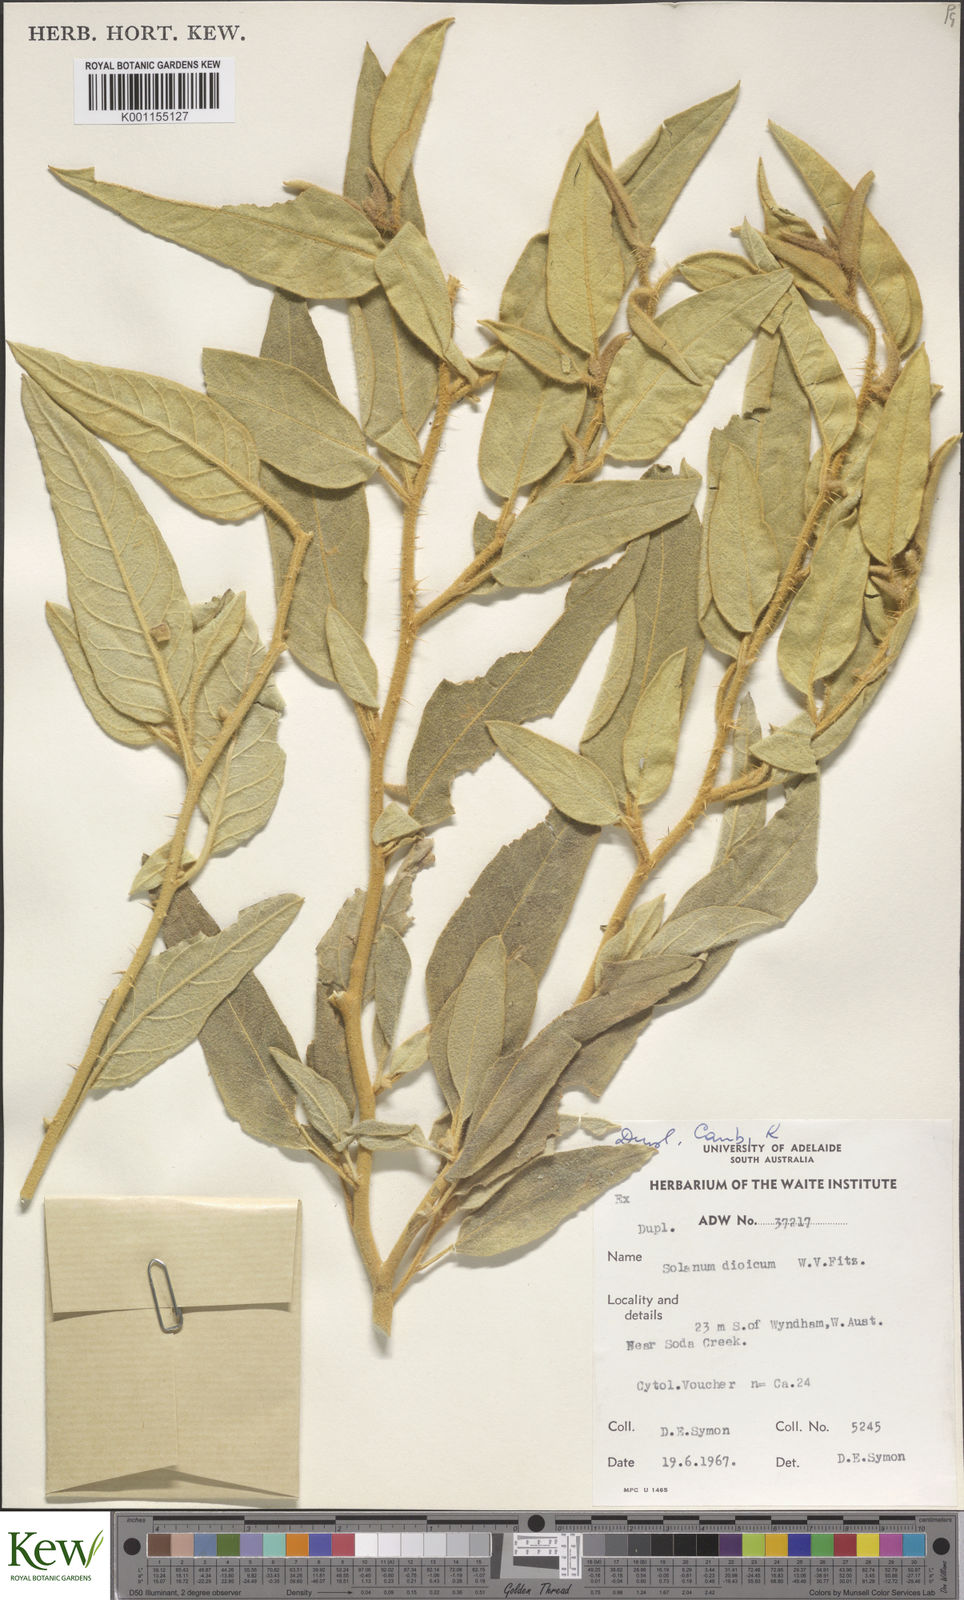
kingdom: Plantae
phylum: Tracheophyta
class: Magnoliopsida
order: Solanales
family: Solanaceae
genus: Solanum
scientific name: Solanum dioicum
